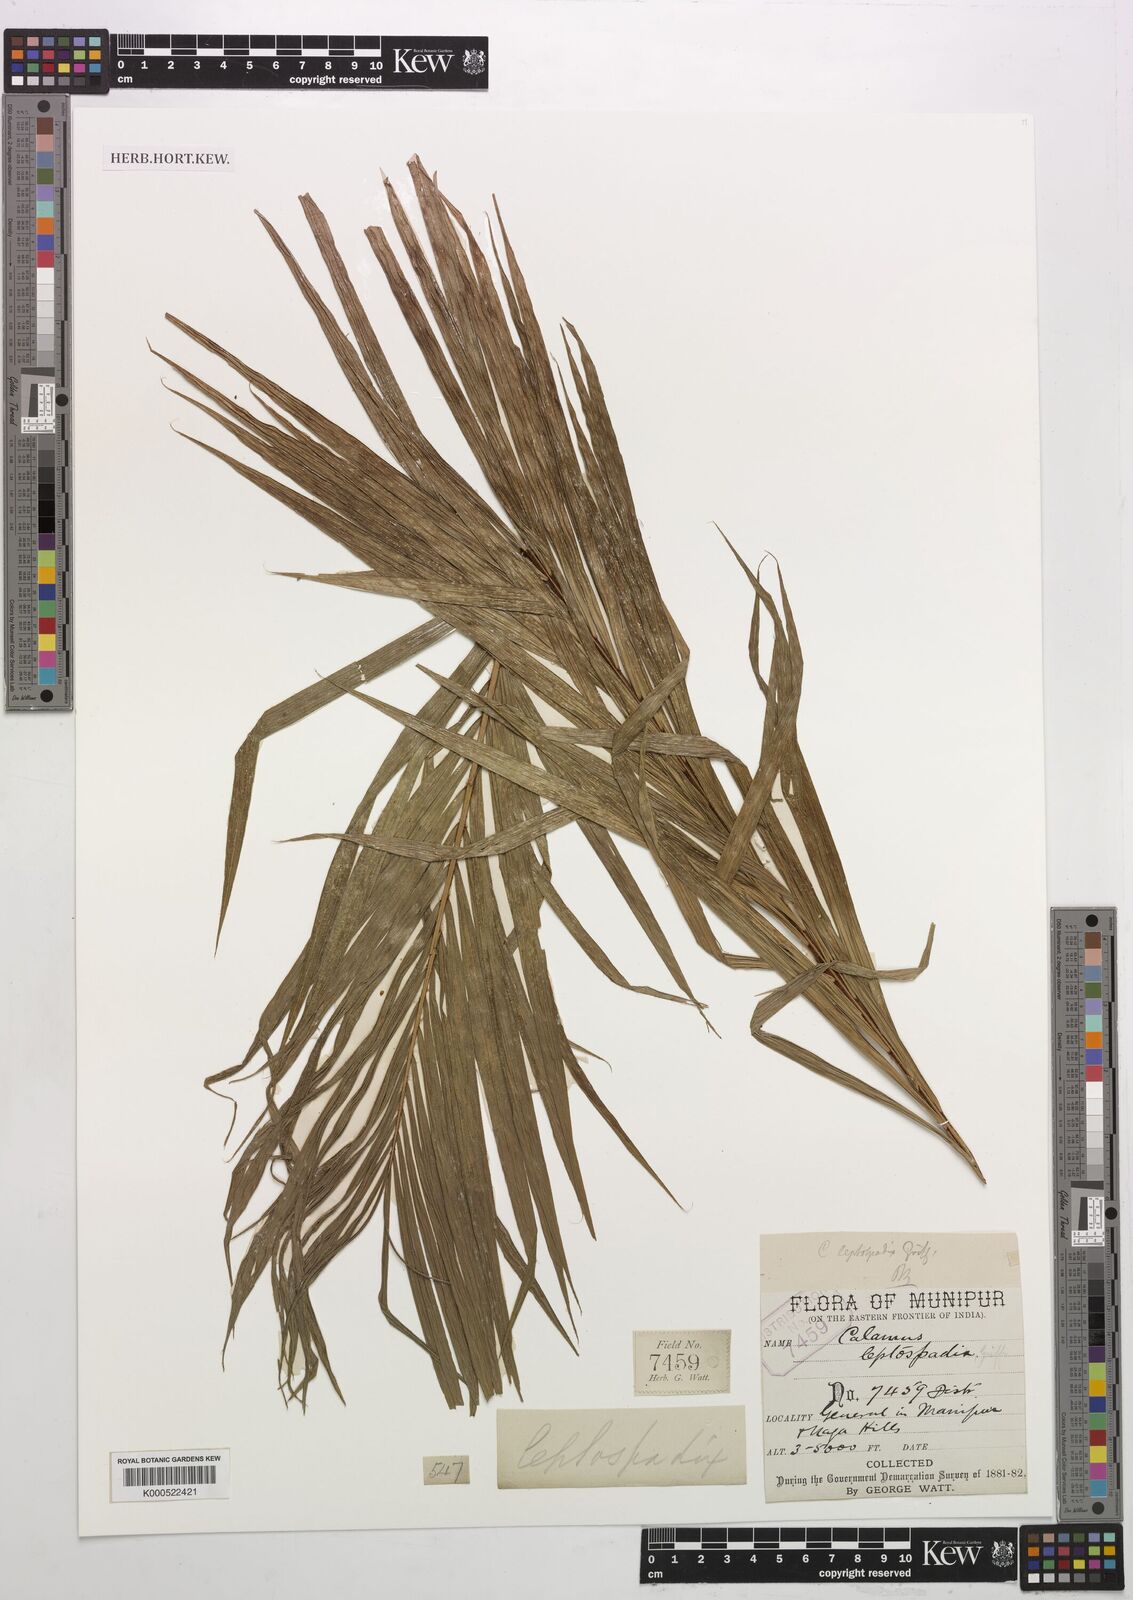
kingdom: Plantae
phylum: Tracheophyta
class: Liliopsida
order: Arecales
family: Arecaceae
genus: Calamus
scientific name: Calamus leptospadix
